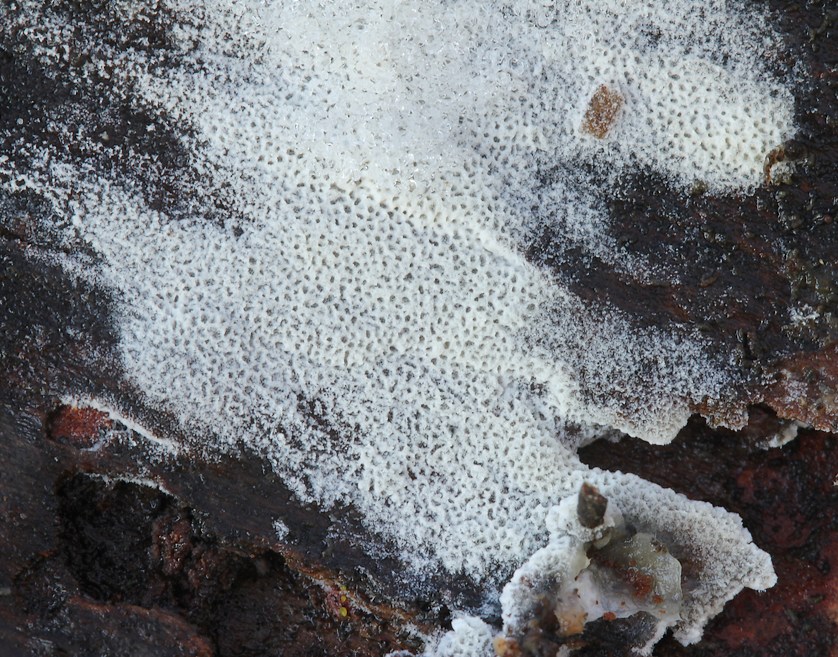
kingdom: Fungi
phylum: Basidiomycota
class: Agaricomycetes
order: Polyporales
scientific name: Polyporales
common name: poresvampordenen
